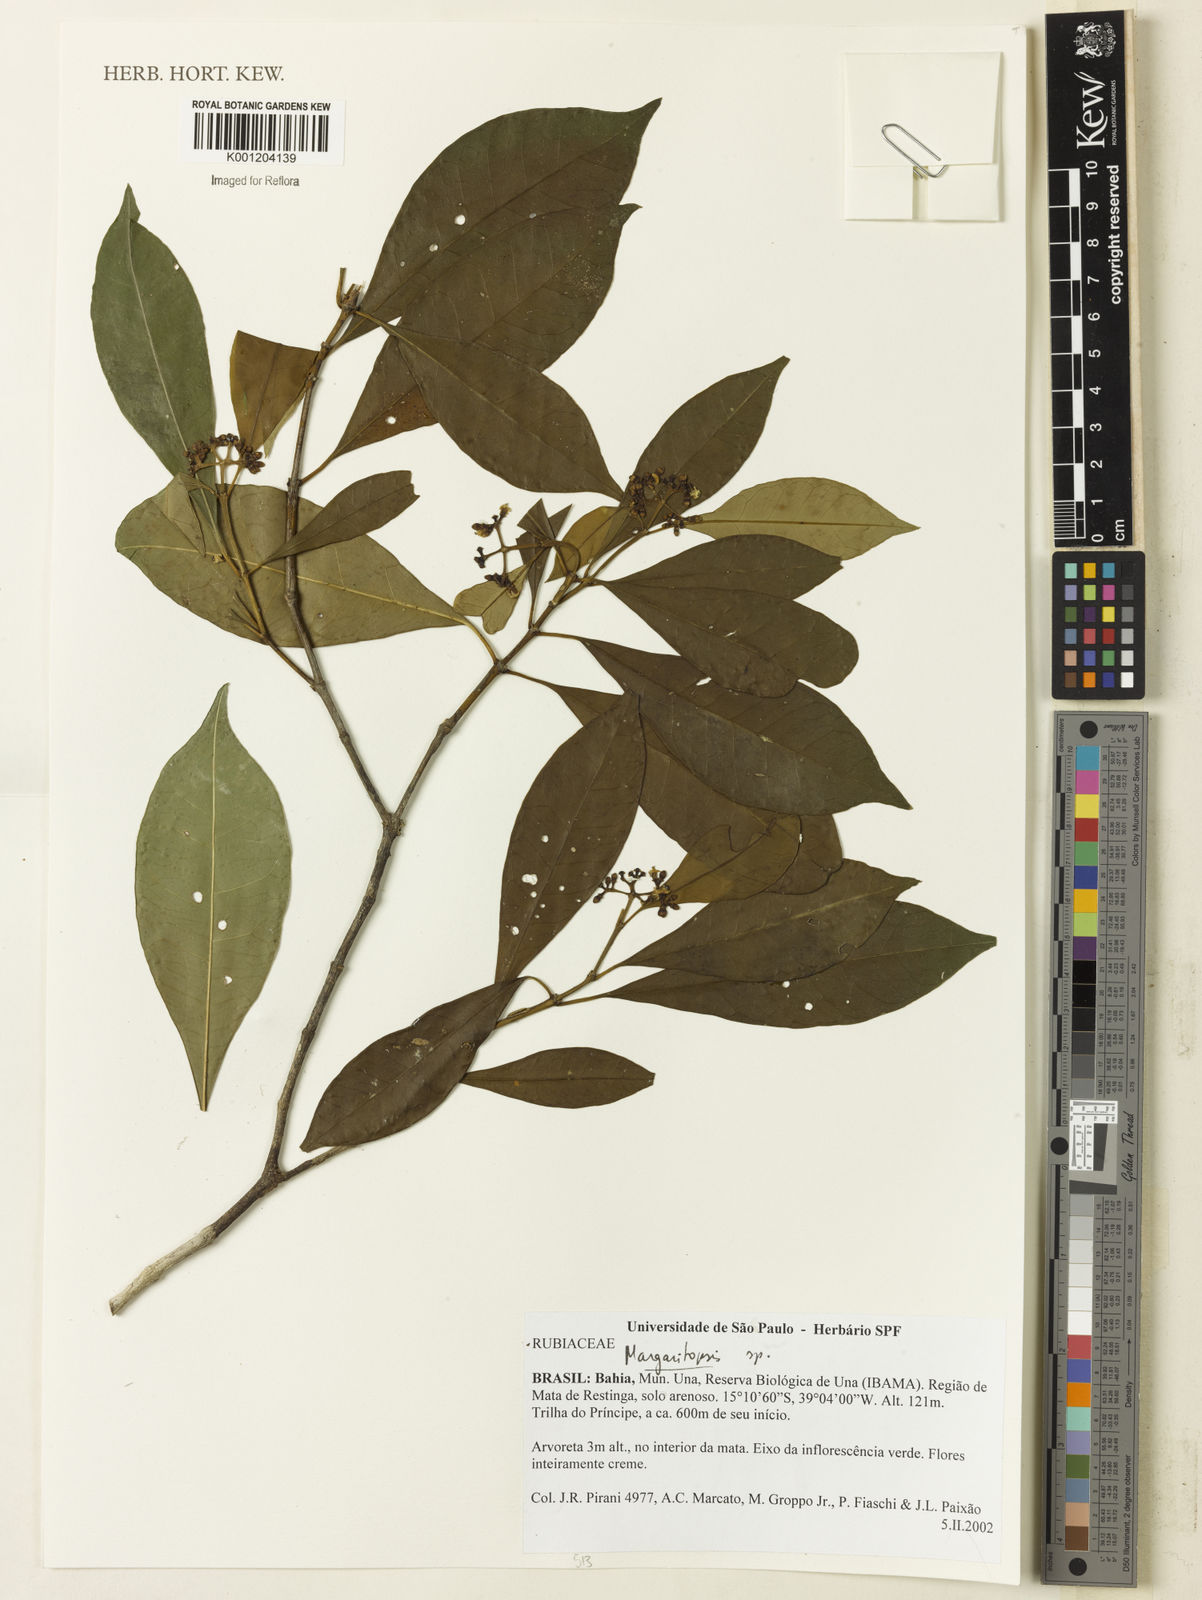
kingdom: Plantae
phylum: Tracheophyta
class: Magnoliopsida
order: Gentianales
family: Rubiaceae
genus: Eumachia
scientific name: Eumachia
